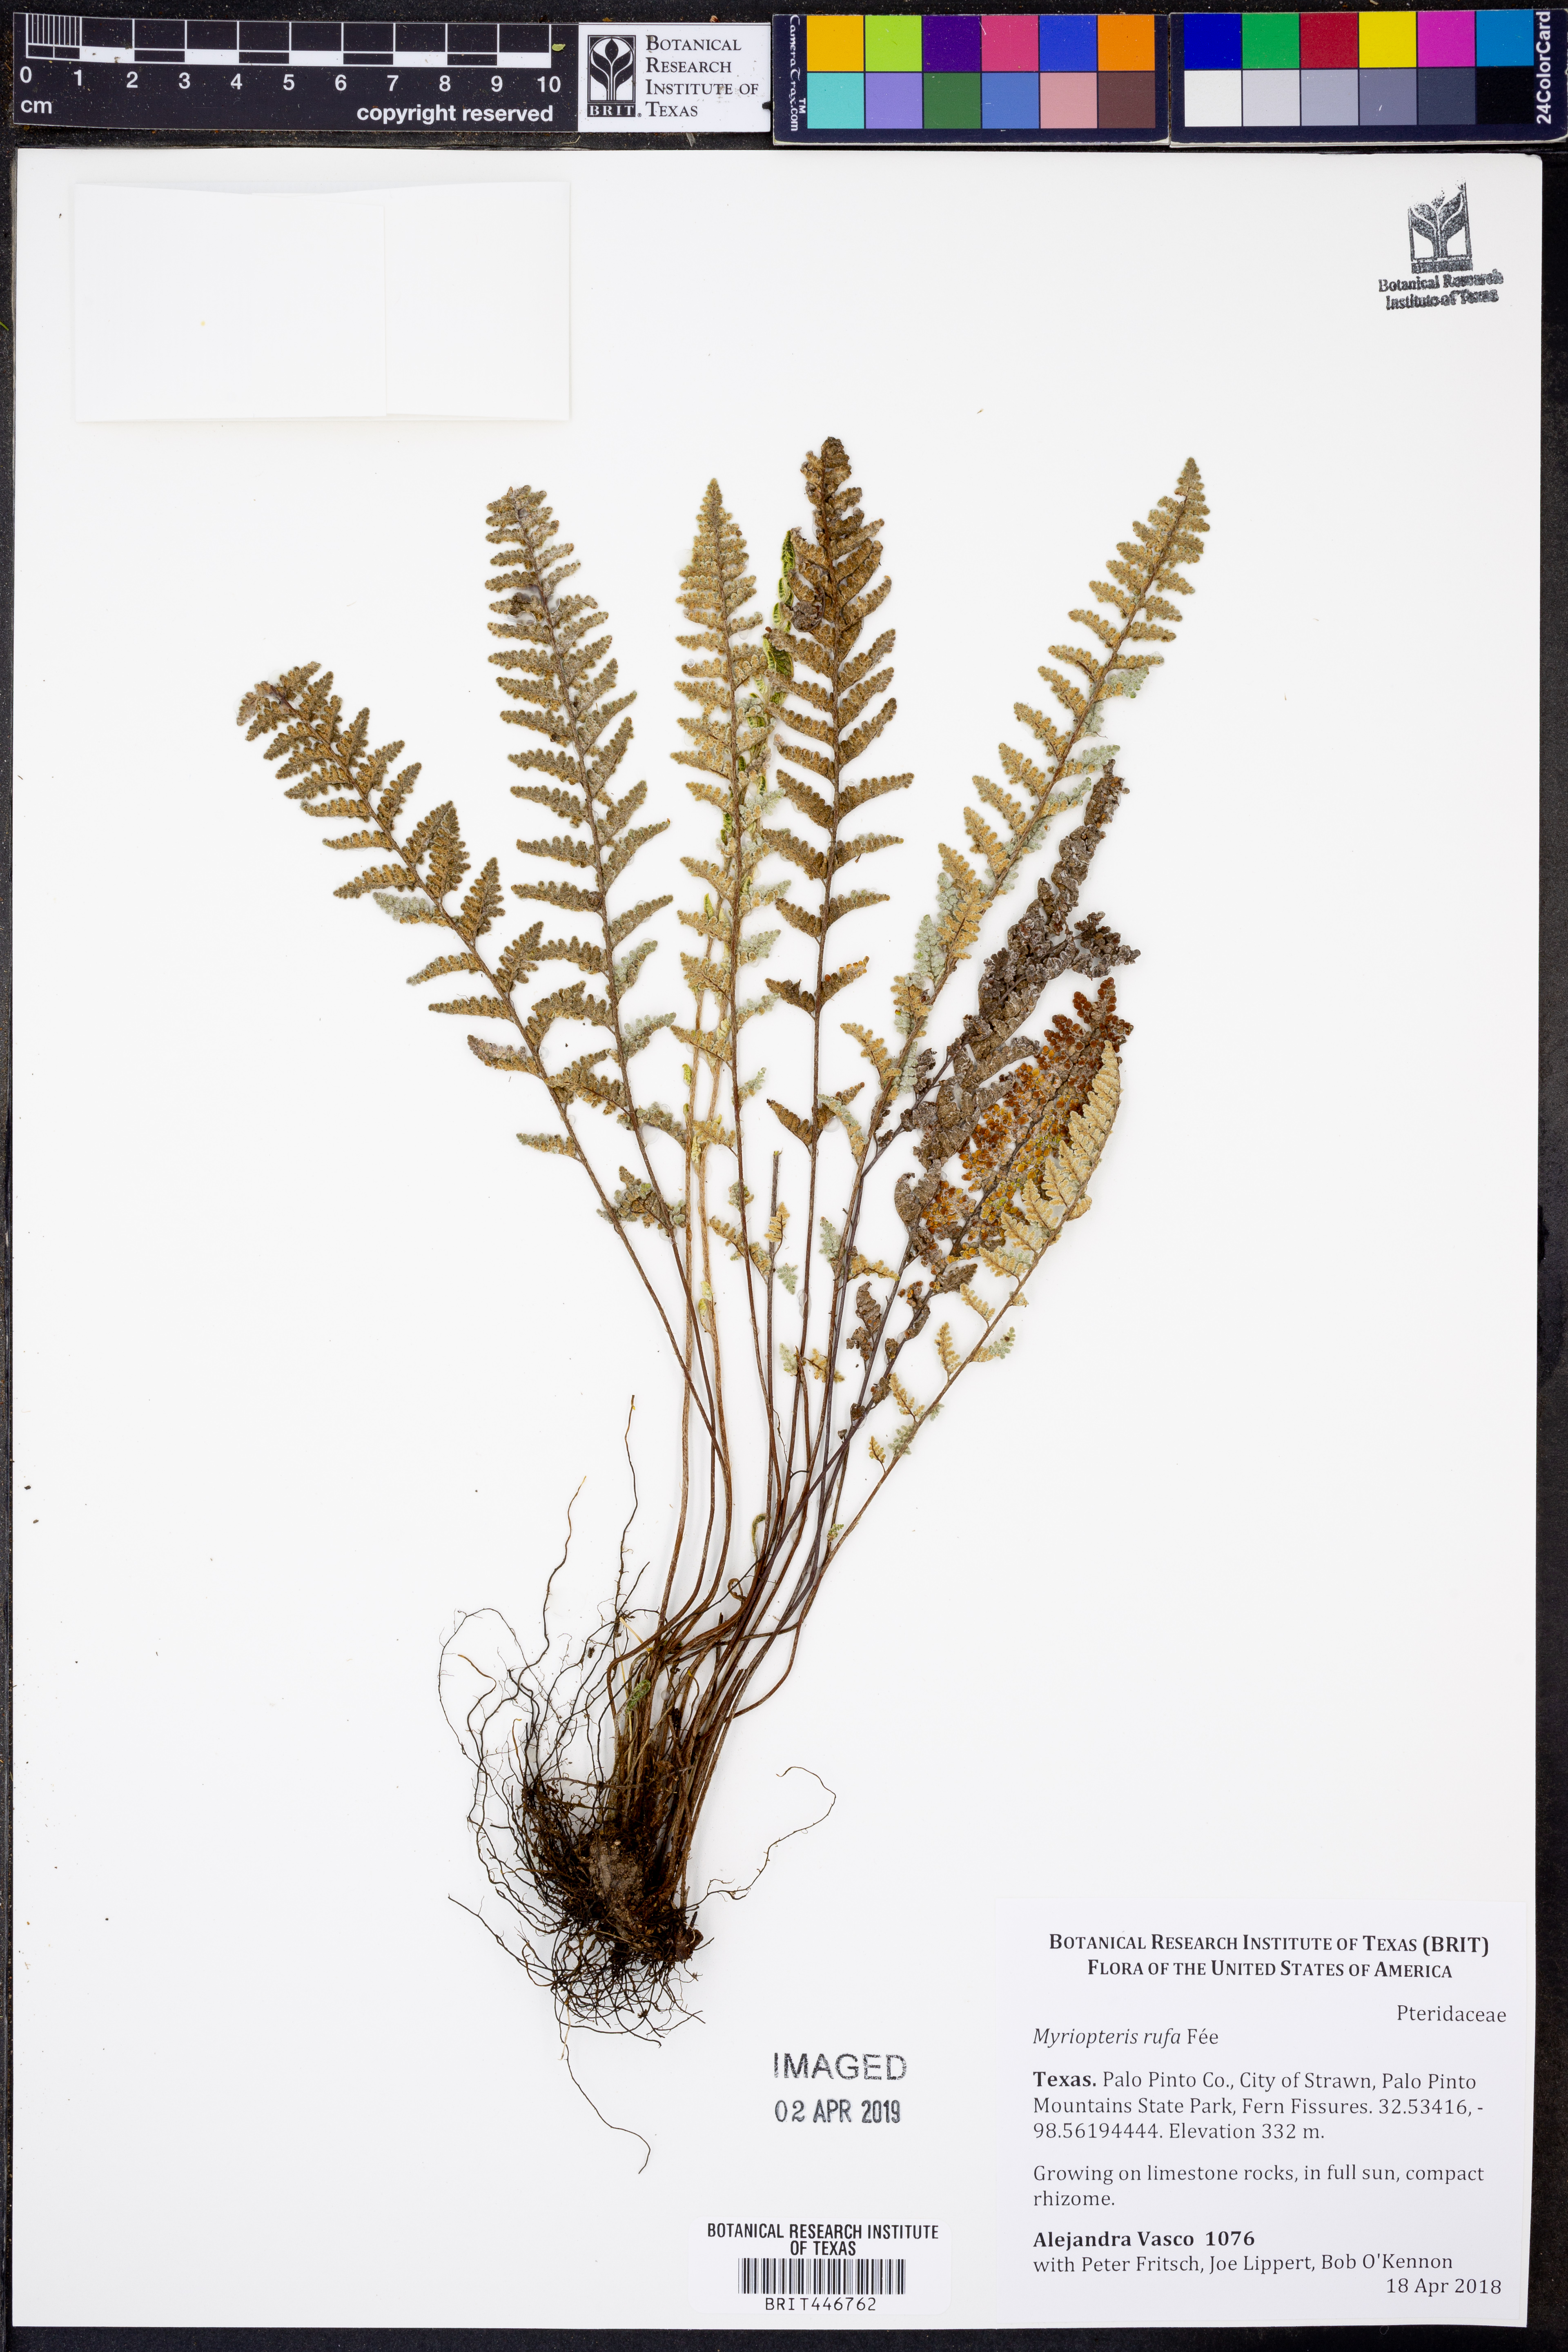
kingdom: Plantae
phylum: Tracheophyta
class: Polypodiopsida
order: Polypodiales
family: Pteridaceae
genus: Myriopteris
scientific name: Myriopteris rufa
